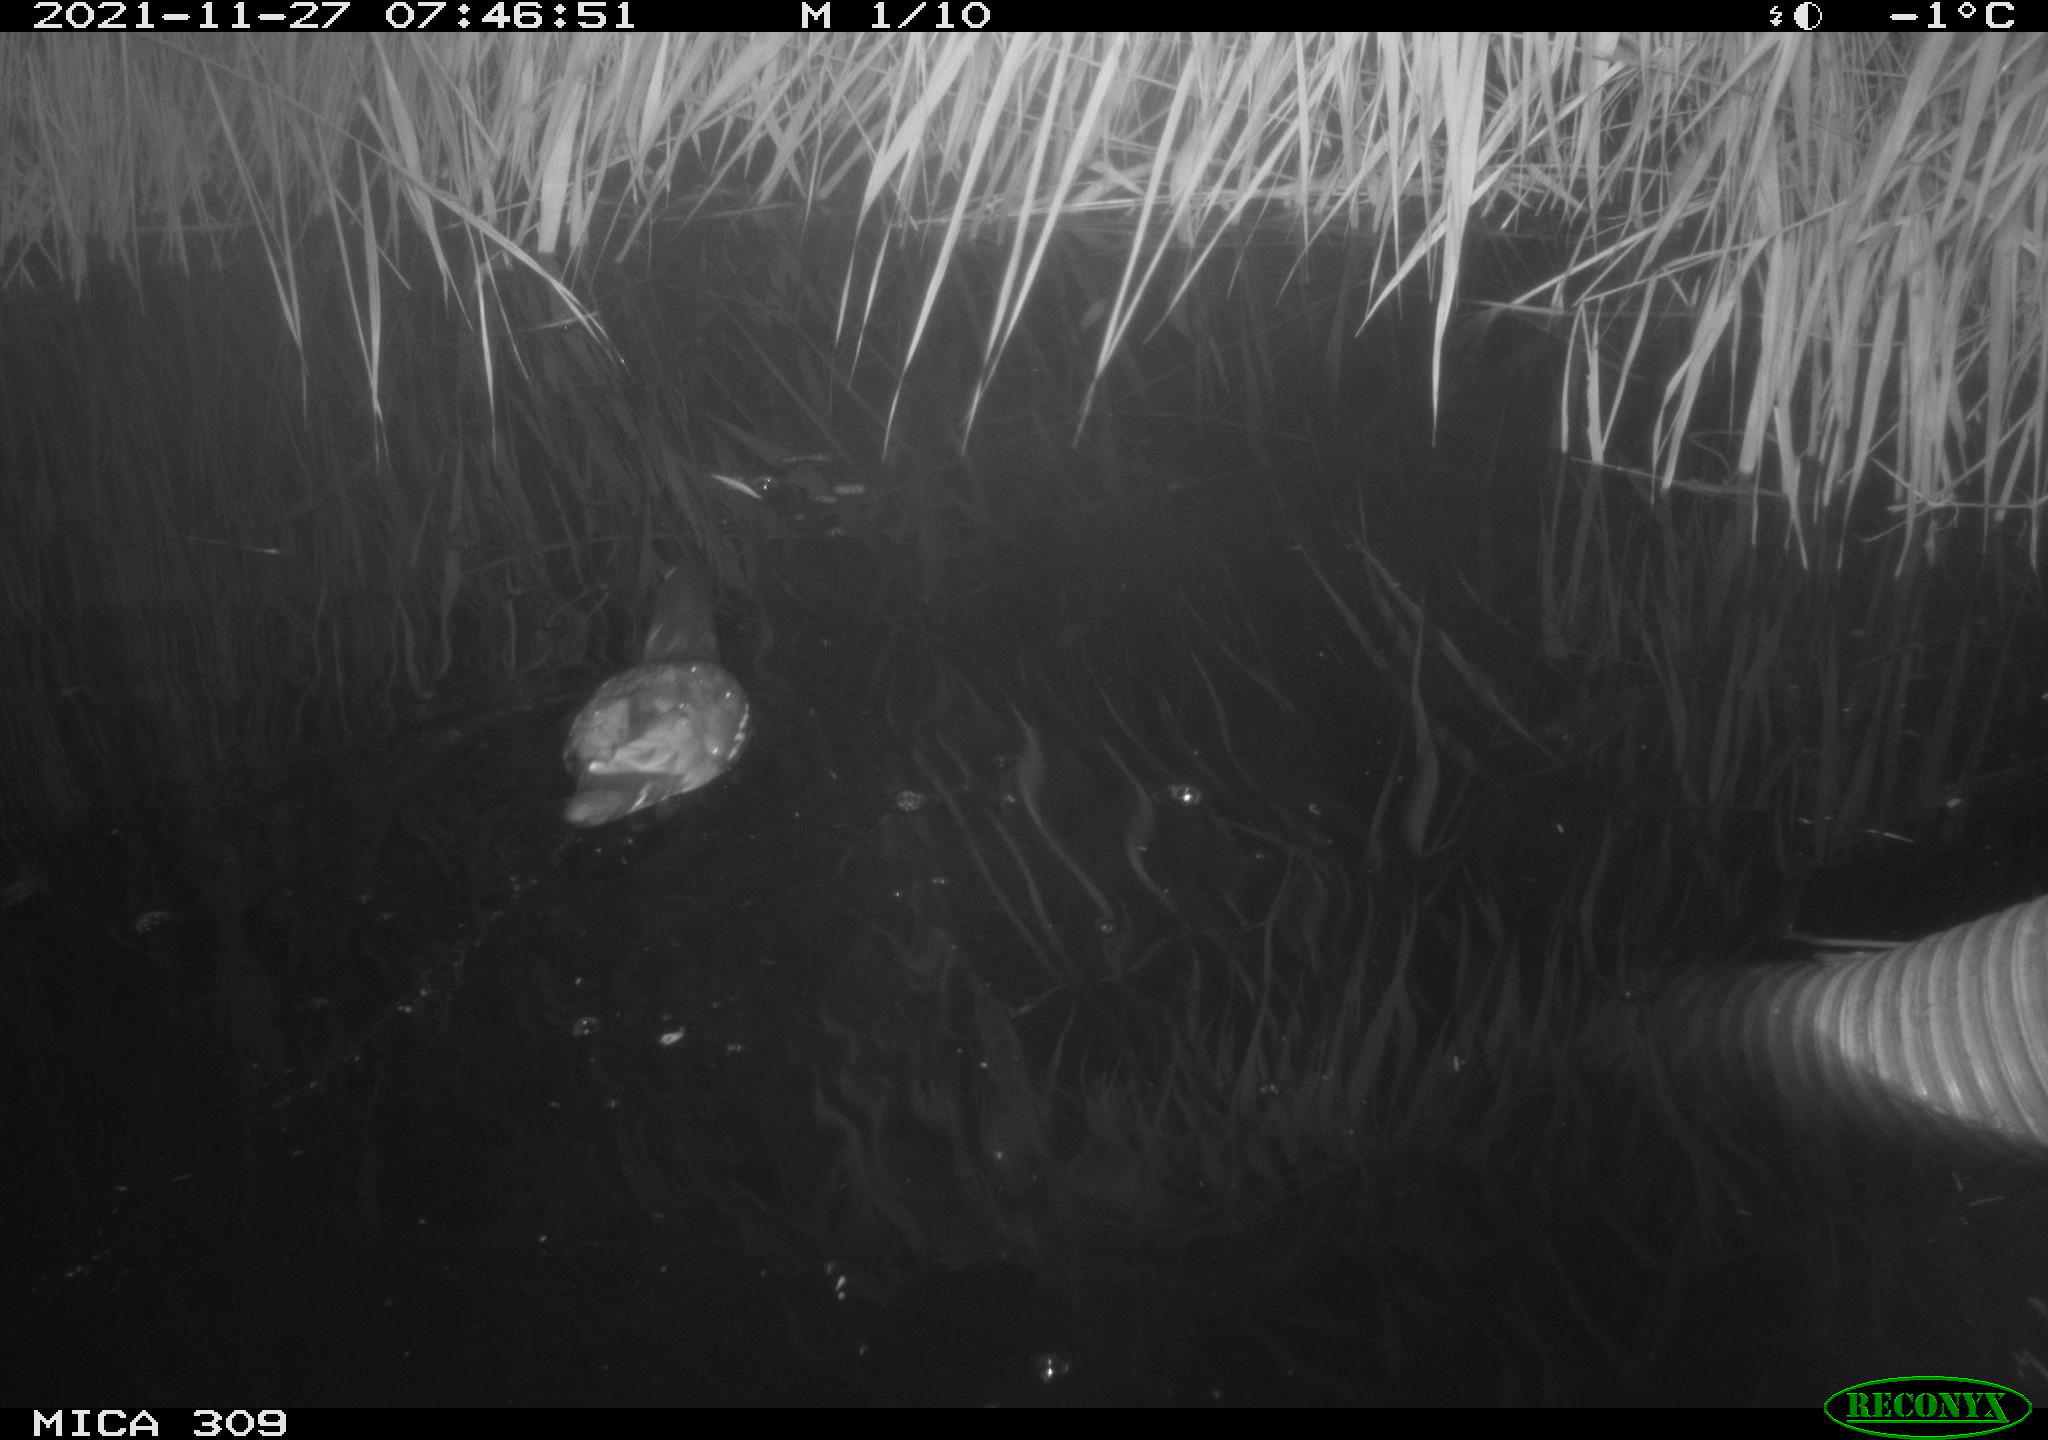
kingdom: Animalia
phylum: Chordata
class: Aves
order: Gruiformes
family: Rallidae
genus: Gallinula
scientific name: Gallinula chloropus
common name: Common moorhen
